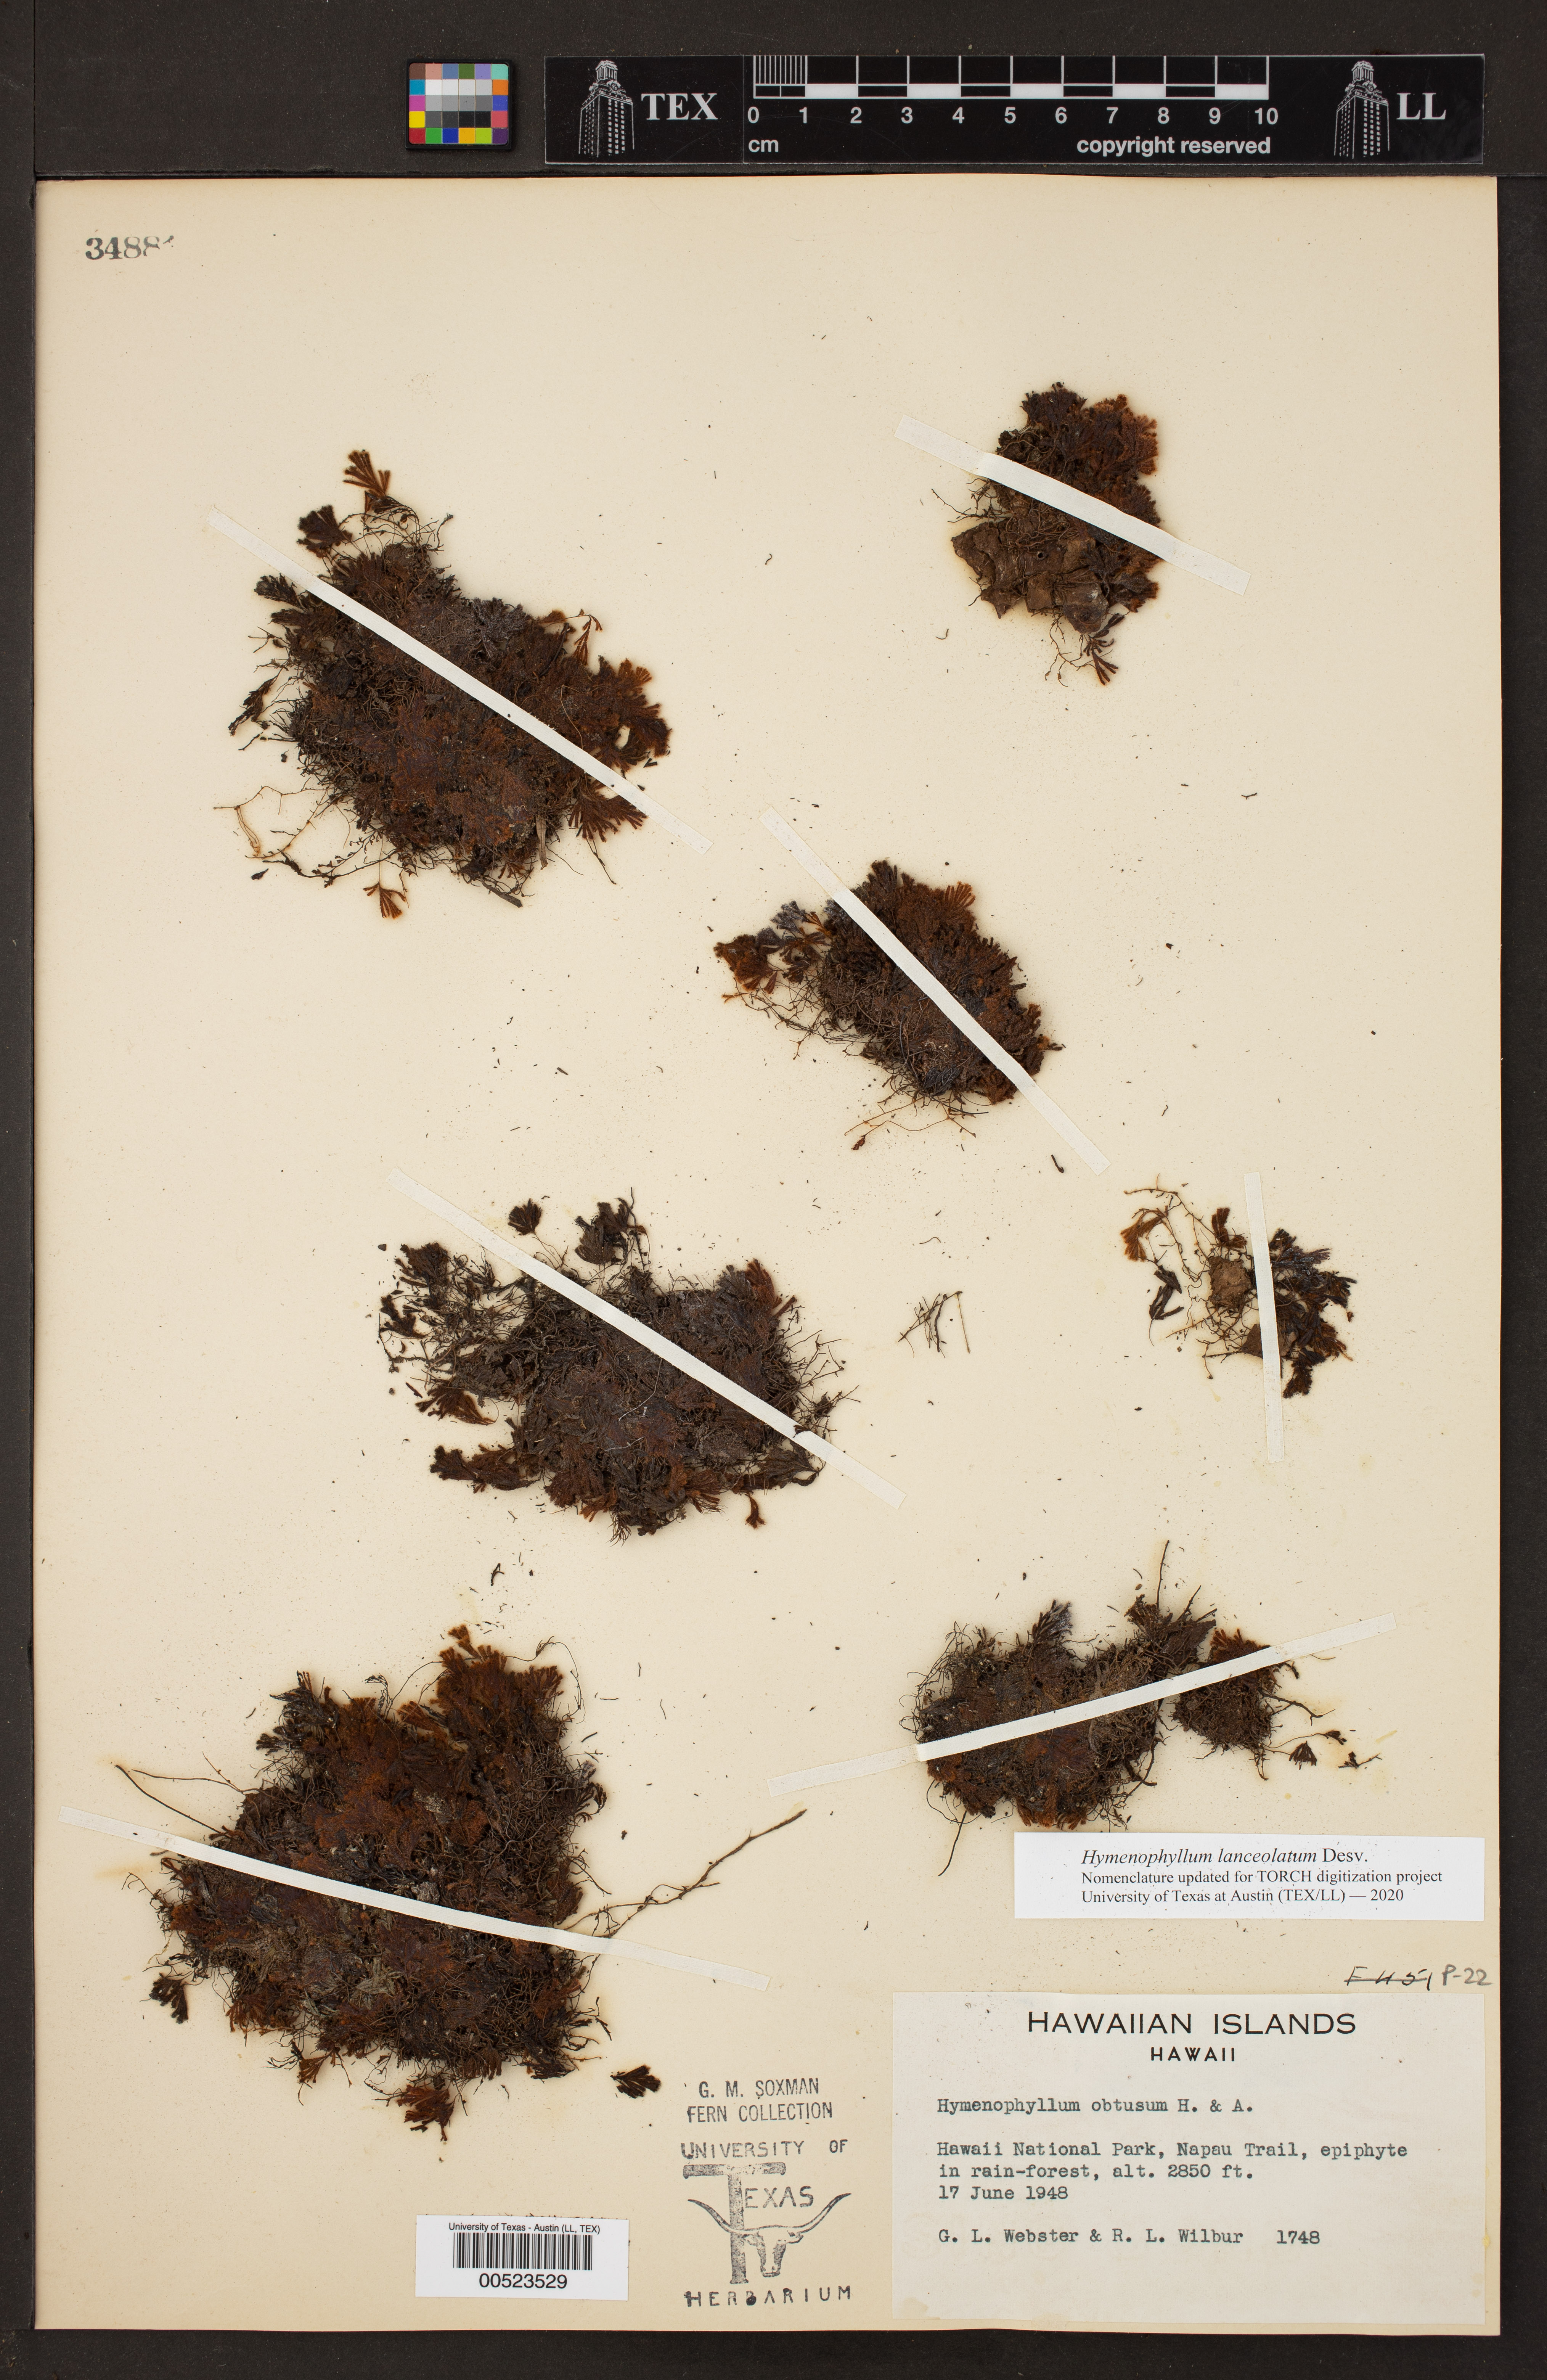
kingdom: Plantae
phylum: Tracheophyta
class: Polypodiopsida
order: Hymenophyllales
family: Hymenophyllaceae
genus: Hymenophyllum
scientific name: Hymenophyllum lanceolatum
